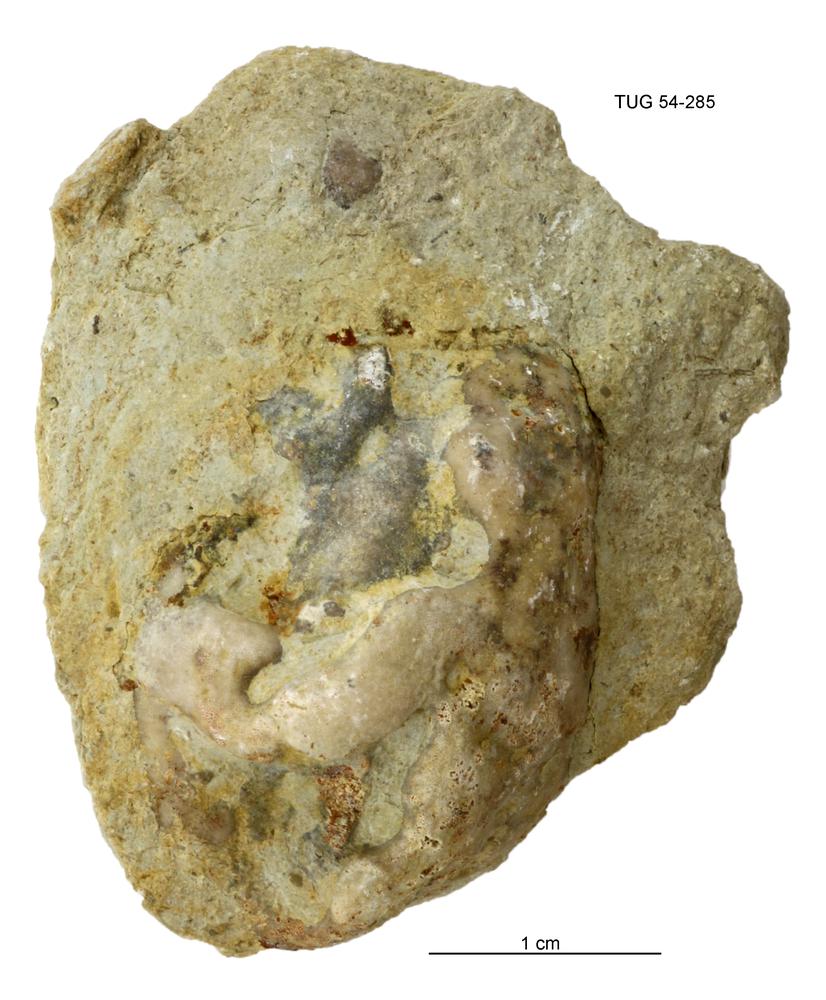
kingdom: Animalia
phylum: Porifera
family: Chaetetidae
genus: Solenopora
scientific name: Solenopora
